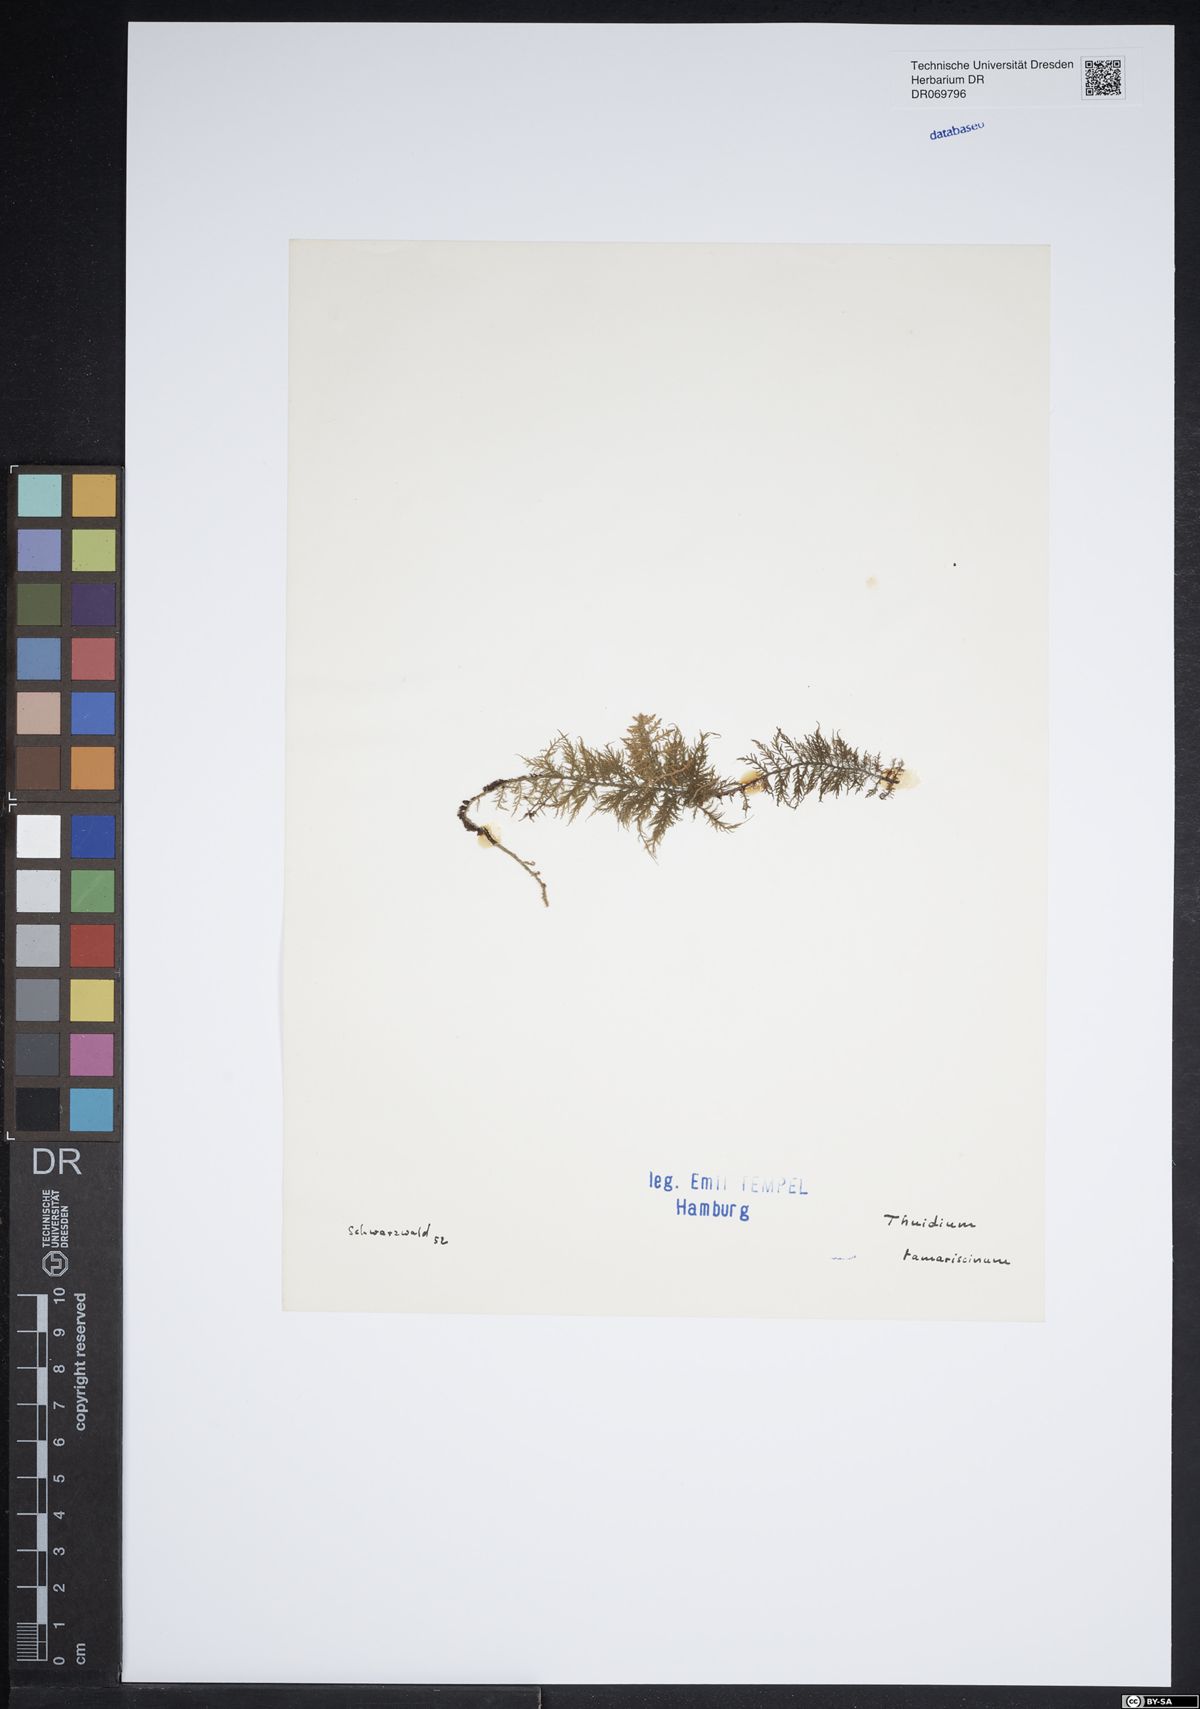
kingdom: Plantae
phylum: Bryophyta
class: Bryopsida
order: Hypnales
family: Thuidiaceae
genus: Thuidium
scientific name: Thuidium tamariscinum
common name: Common tamarisk-moss
